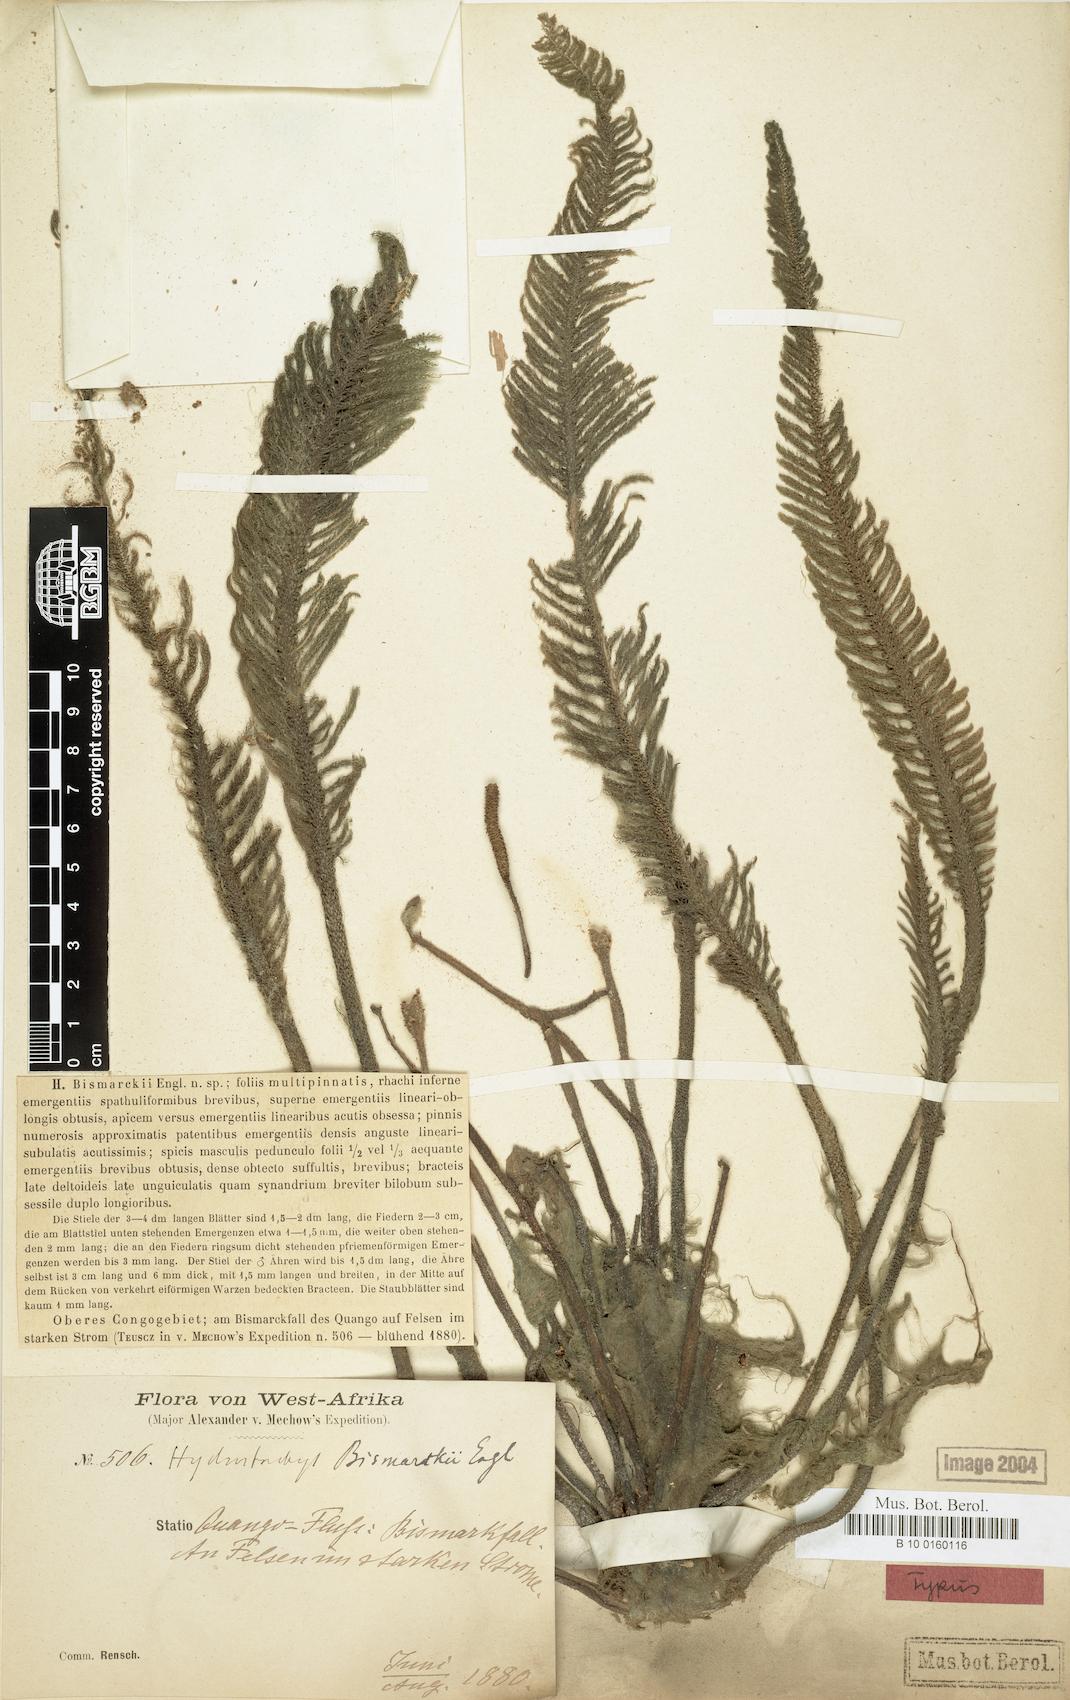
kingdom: Plantae
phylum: Tracheophyta
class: Magnoliopsida
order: Cornales
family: Hydrostachyaceae
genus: Hydrostachys
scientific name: Hydrostachys bismarckii
